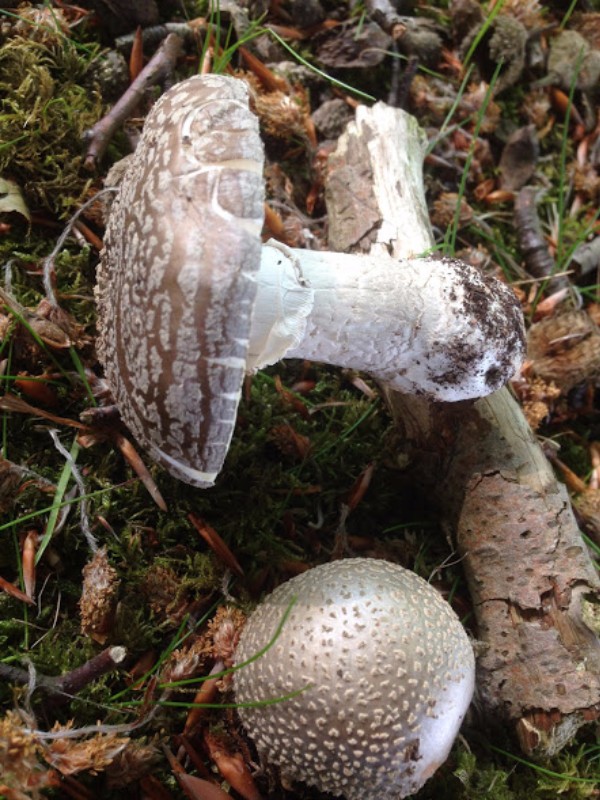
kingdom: Fungi
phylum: Basidiomycota
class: Agaricomycetes
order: Agaricales
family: Amanitaceae
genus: Amanita
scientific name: Amanita
